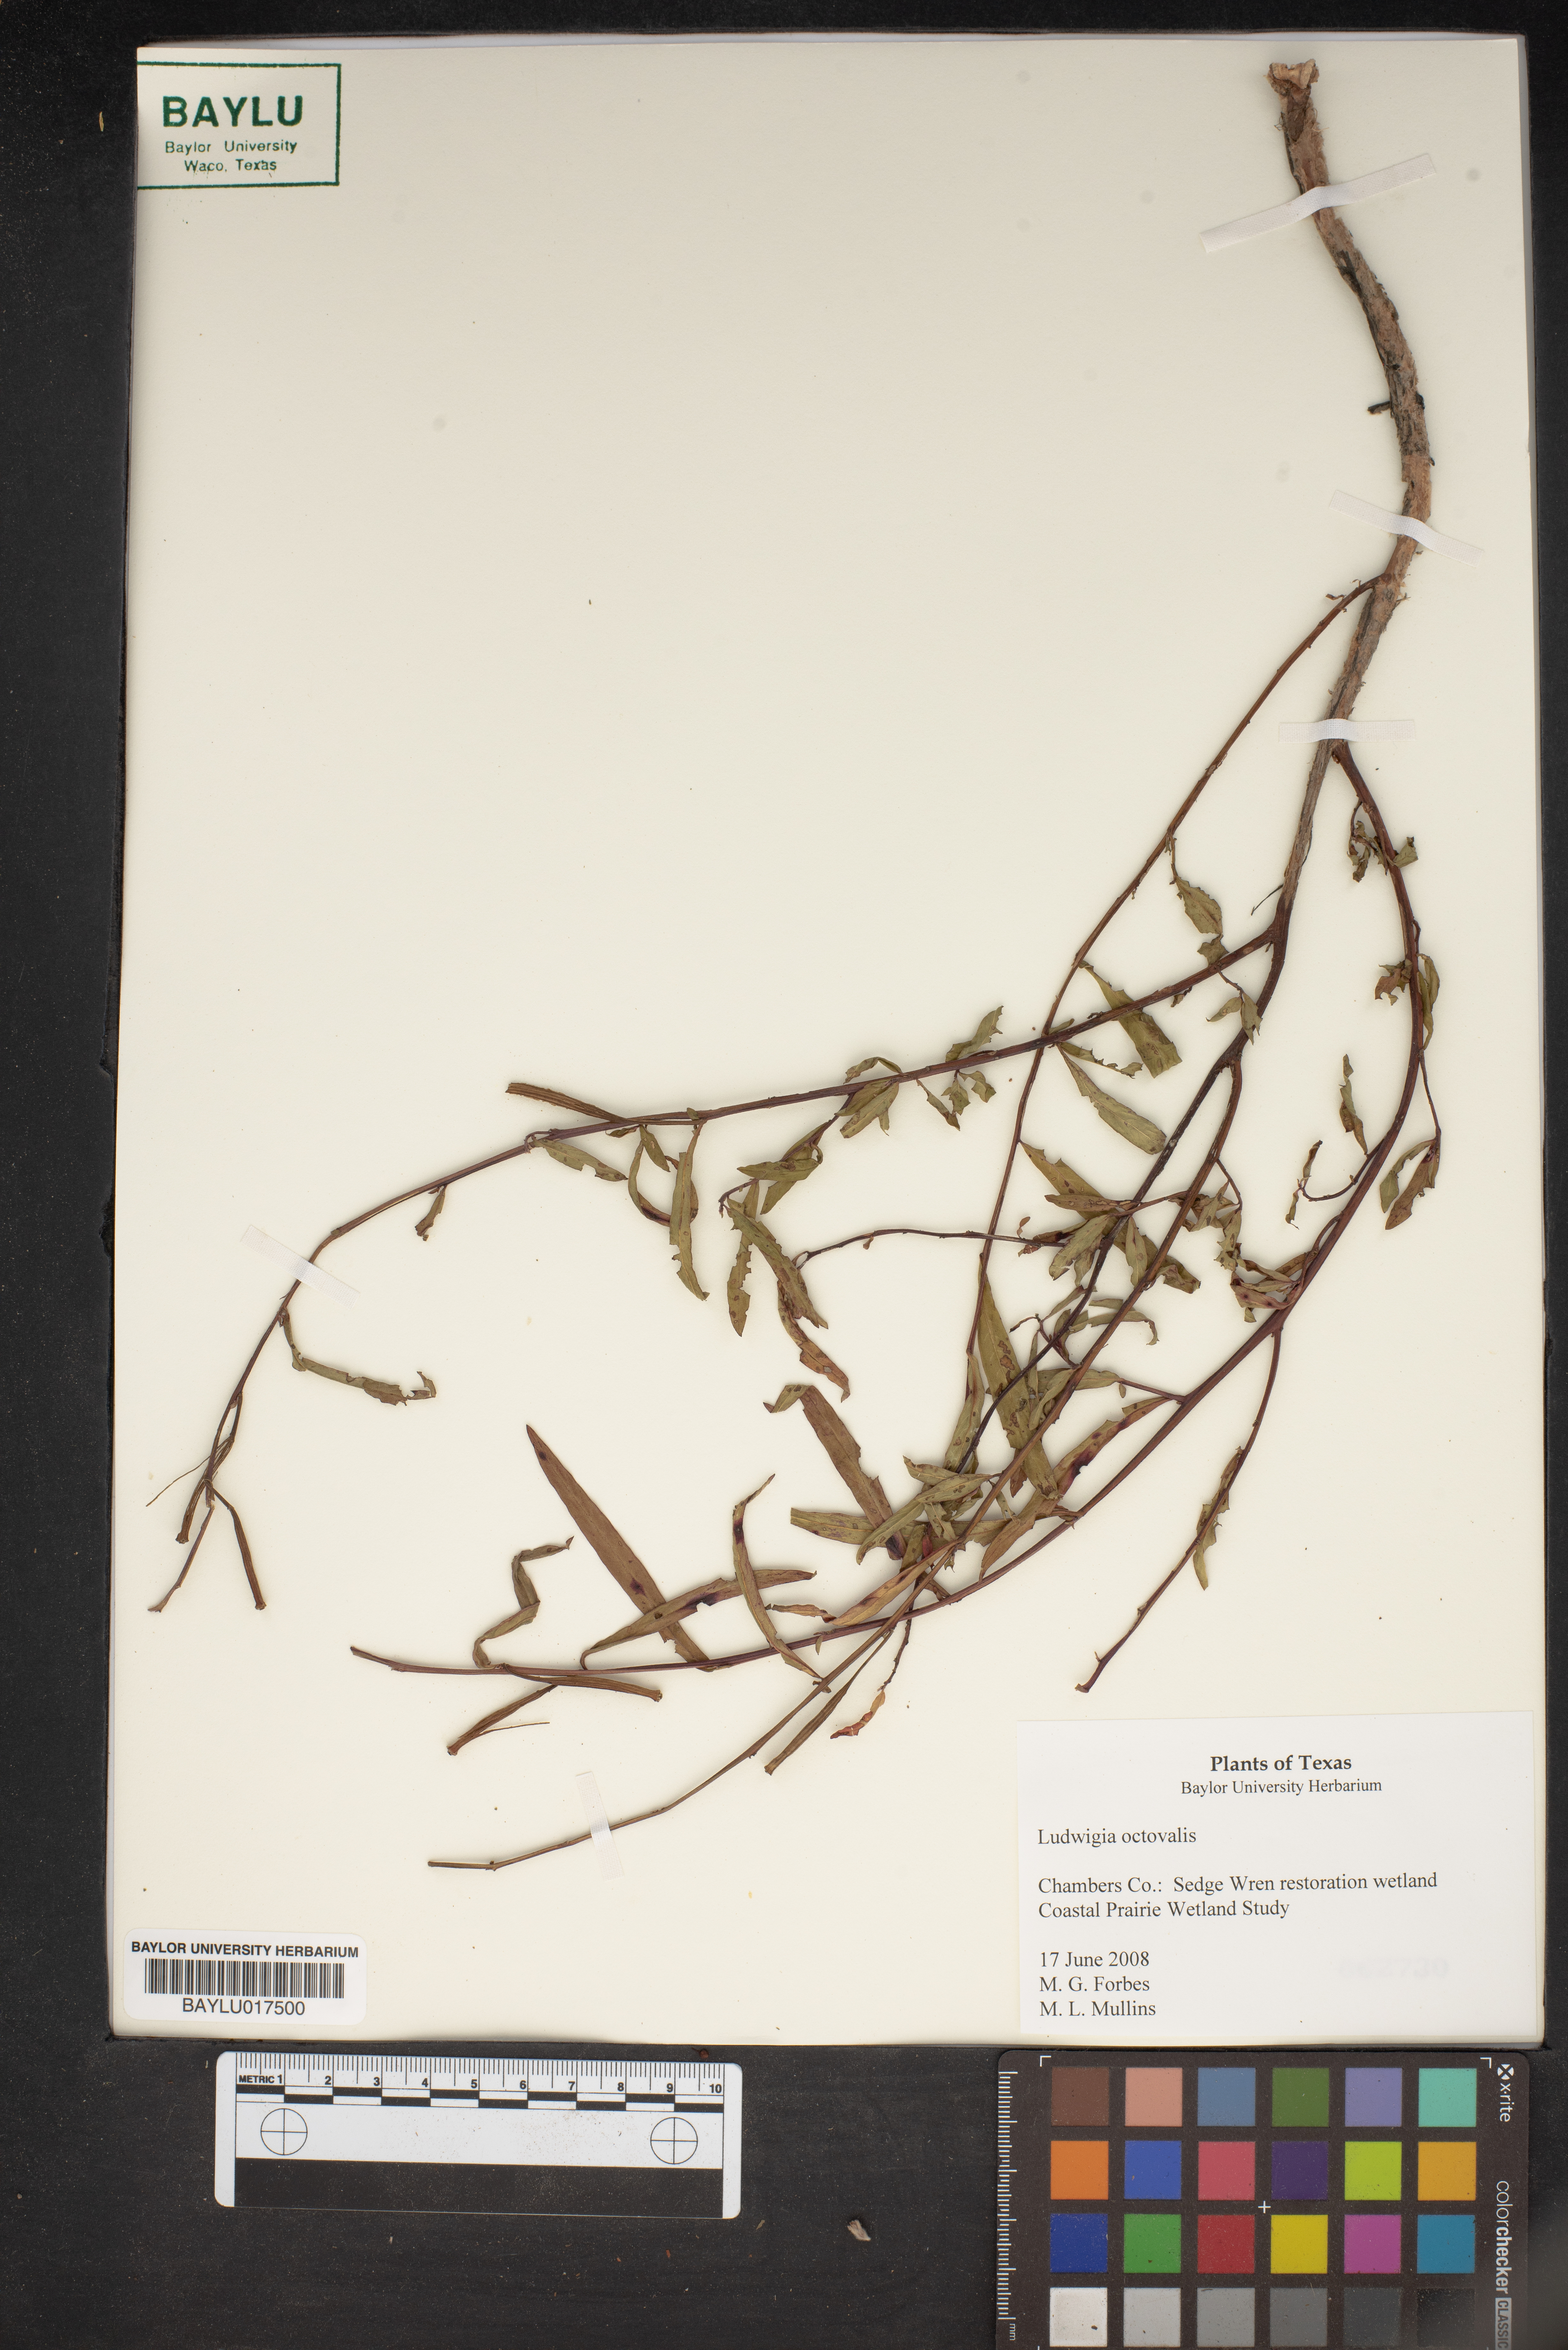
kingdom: Plantae
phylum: Tracheophyta
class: Magnoliopsida
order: Myrtales
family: Onagraceae
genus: Ludwigia
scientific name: Ludwigia octovalvis
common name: Water-primrose
